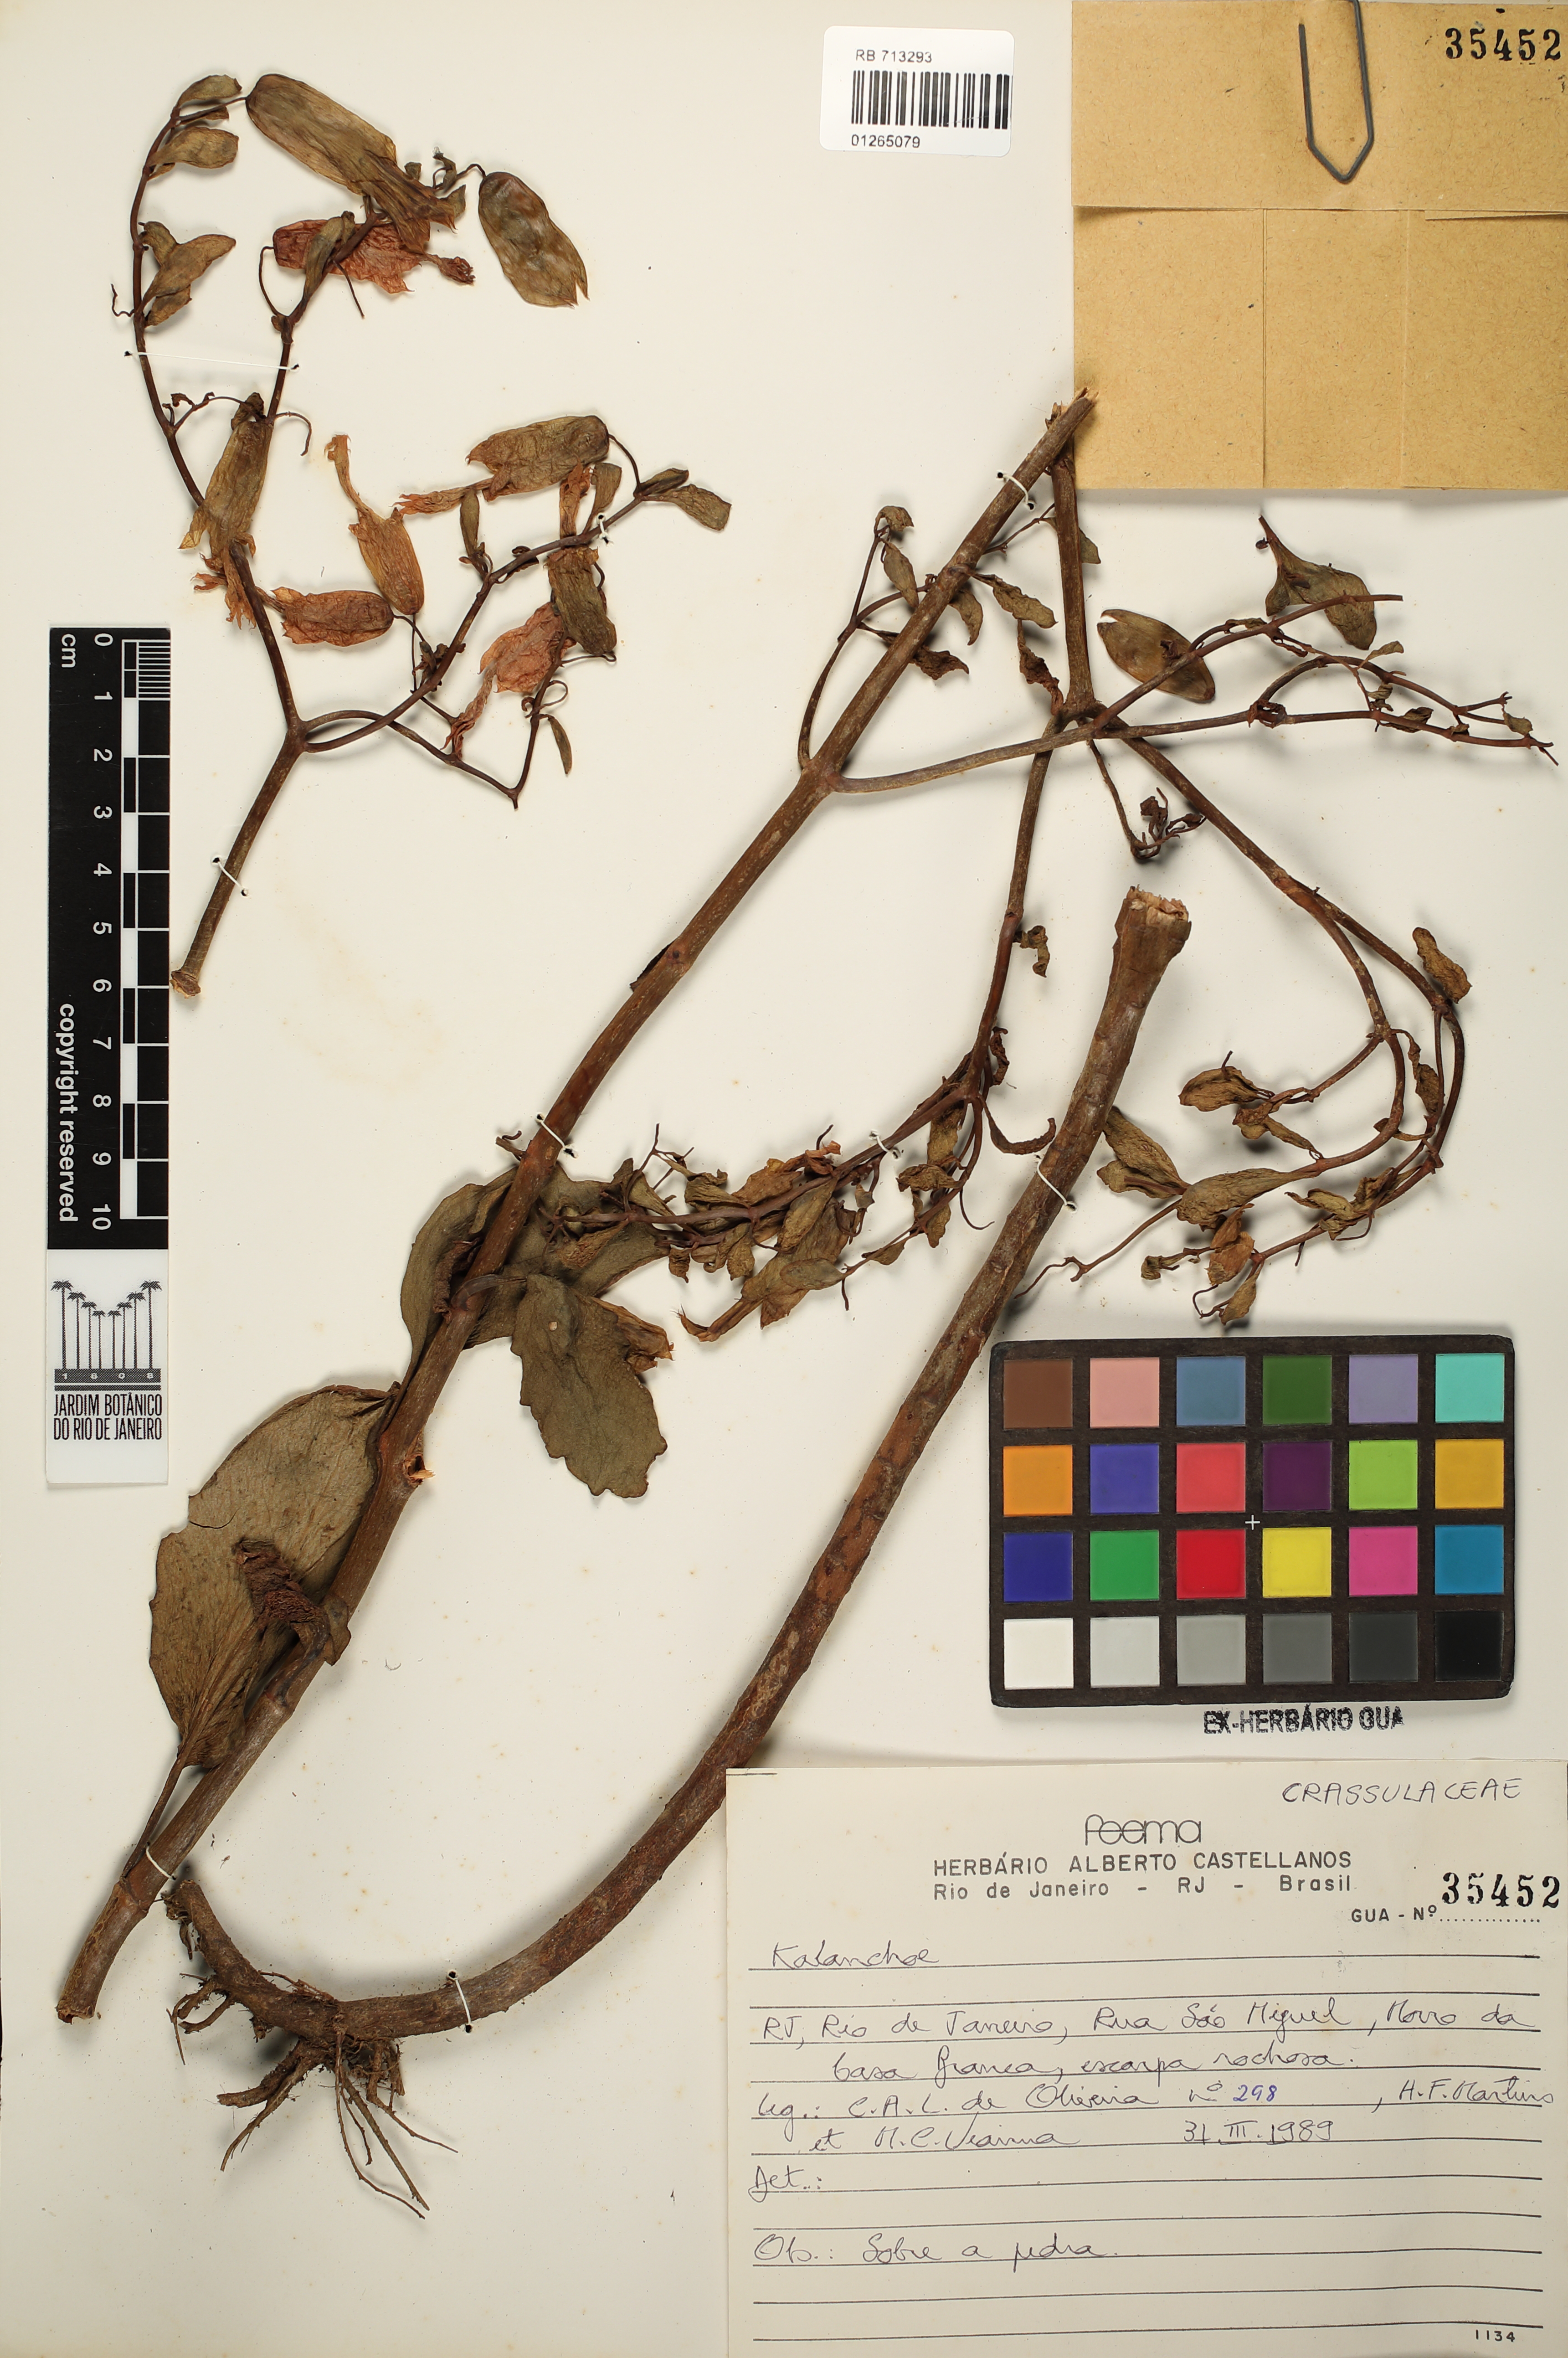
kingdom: Plantae
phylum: Tracheophyta
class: Magnoliopsida
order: Saxifragales
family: Crassulaceae
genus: Kalanchoe
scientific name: Kalanchoe
